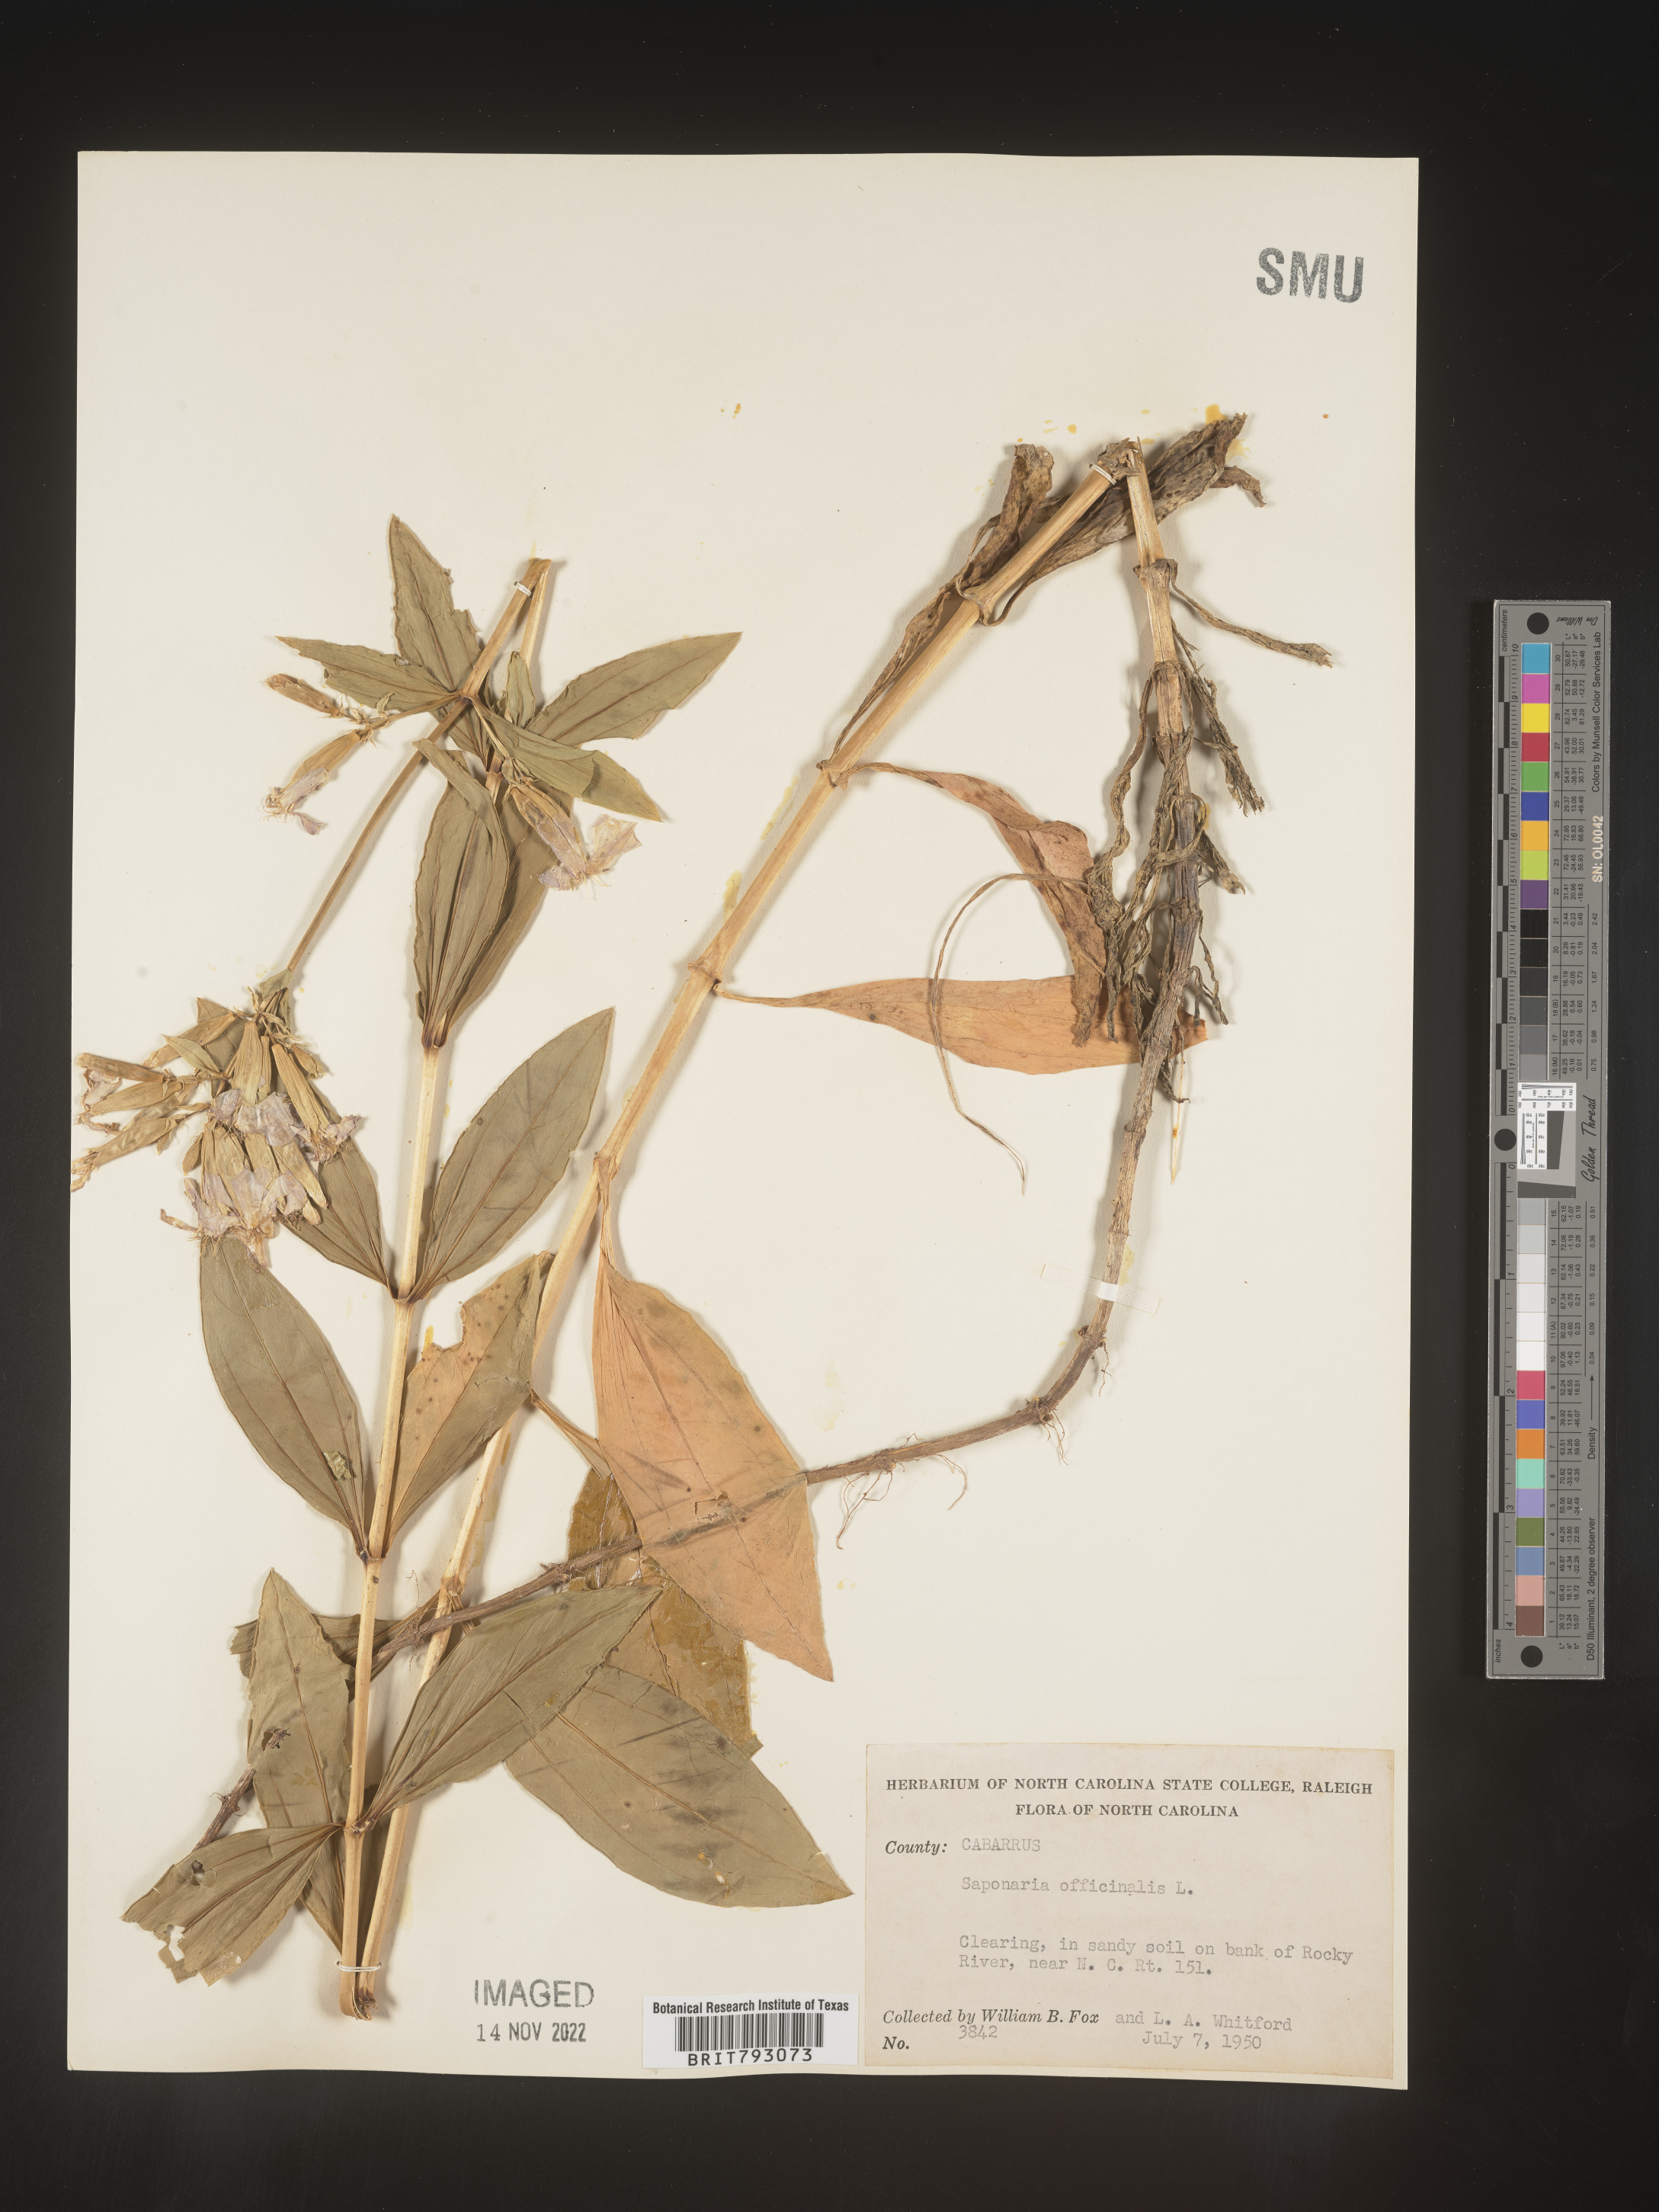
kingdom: Plantae
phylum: Tracheophyta
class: Magnoliopsida
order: Caryophyllales
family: Caryophyllaceae
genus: Saponaria
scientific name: Saponaria officinalis
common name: Soapwort
